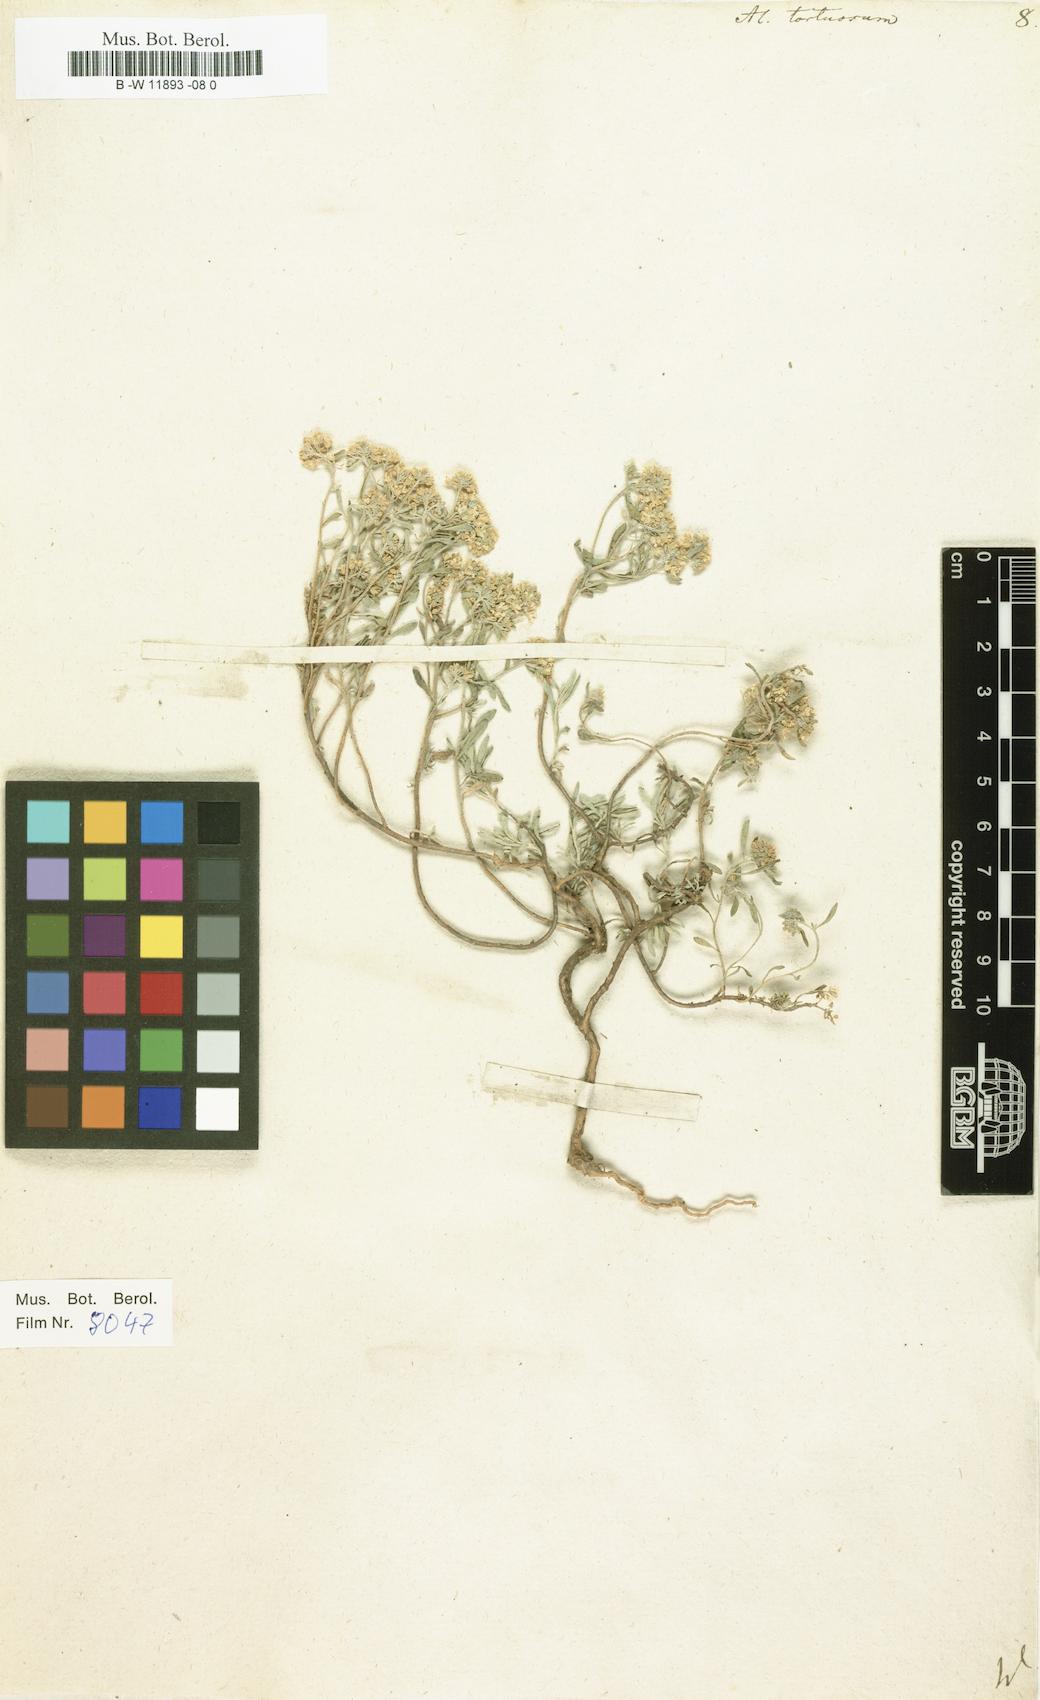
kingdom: Plantae
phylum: Tracheophyta
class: Magnoliopsida
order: Brassicales
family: Brassicaceae
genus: Odontarrhena
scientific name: Odontarrhena tortuosa
